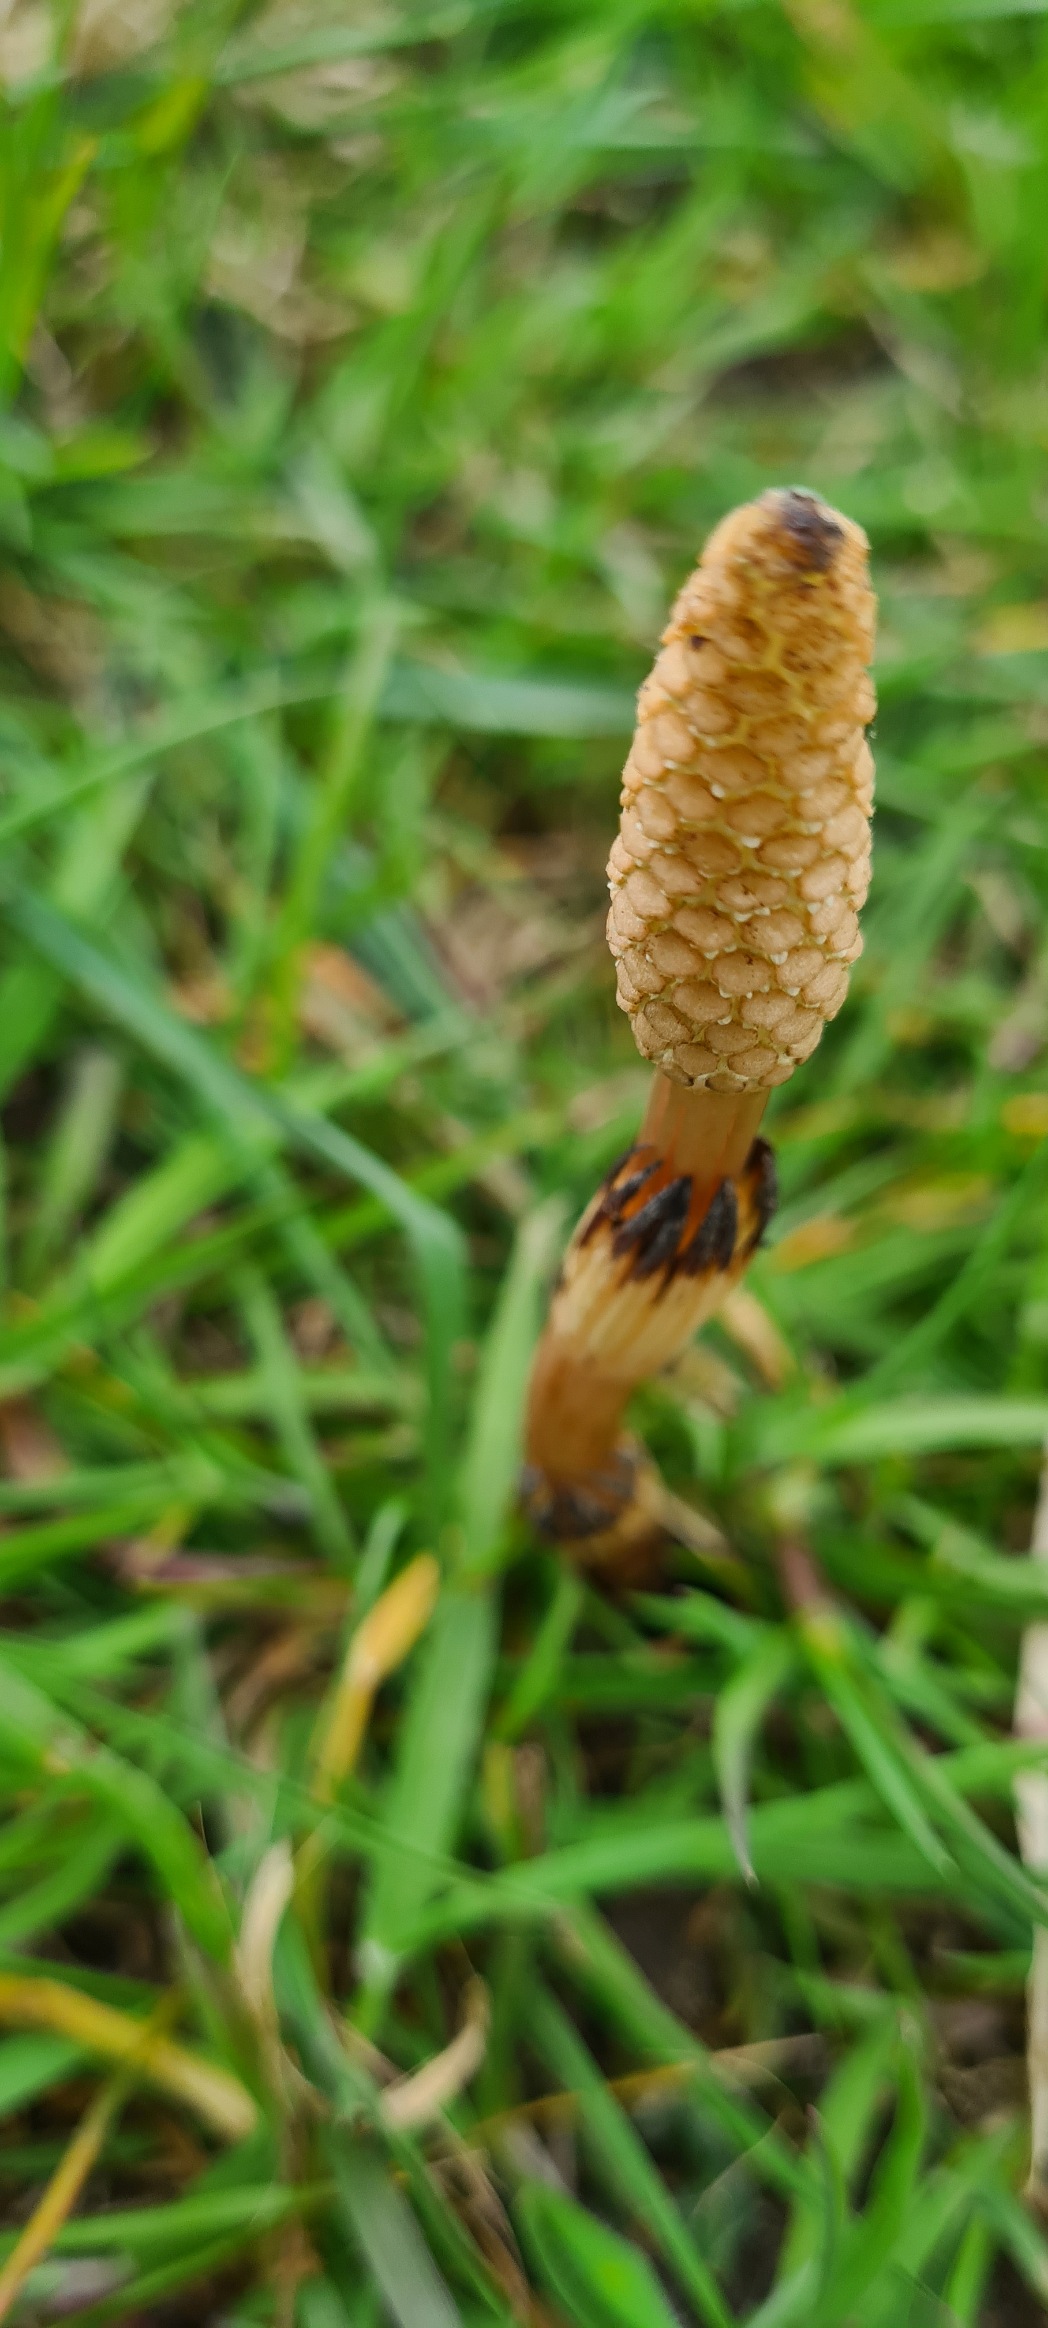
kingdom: Plantae
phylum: Tracheophyta
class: Polypodiopsida
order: Equisetales
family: Equisetaceae
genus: Equisetum
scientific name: Equisetum arvense
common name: Ager-padderok
